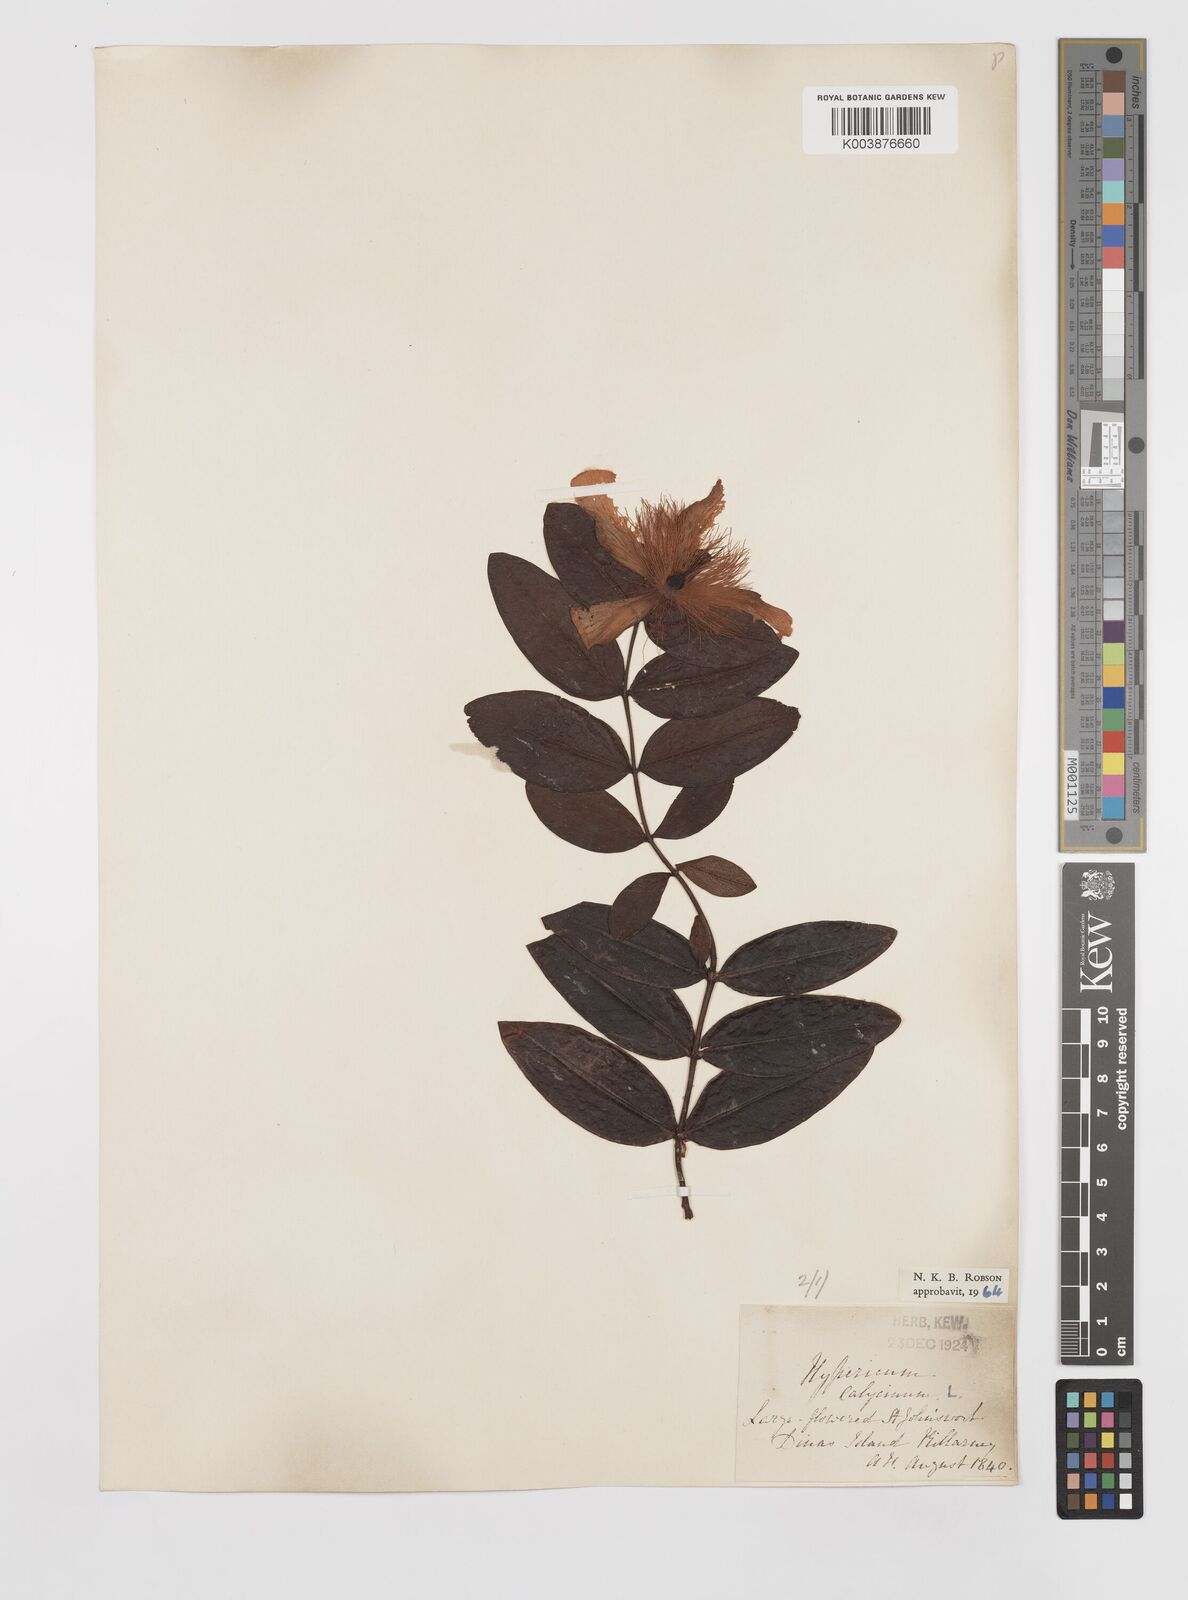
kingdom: Plantae
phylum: Tracheophyta
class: Magnoliopsida
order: Malpighiales
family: Hypericaceae
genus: Hypericum
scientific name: Hypericum calycinum
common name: Rose-of-sharon
